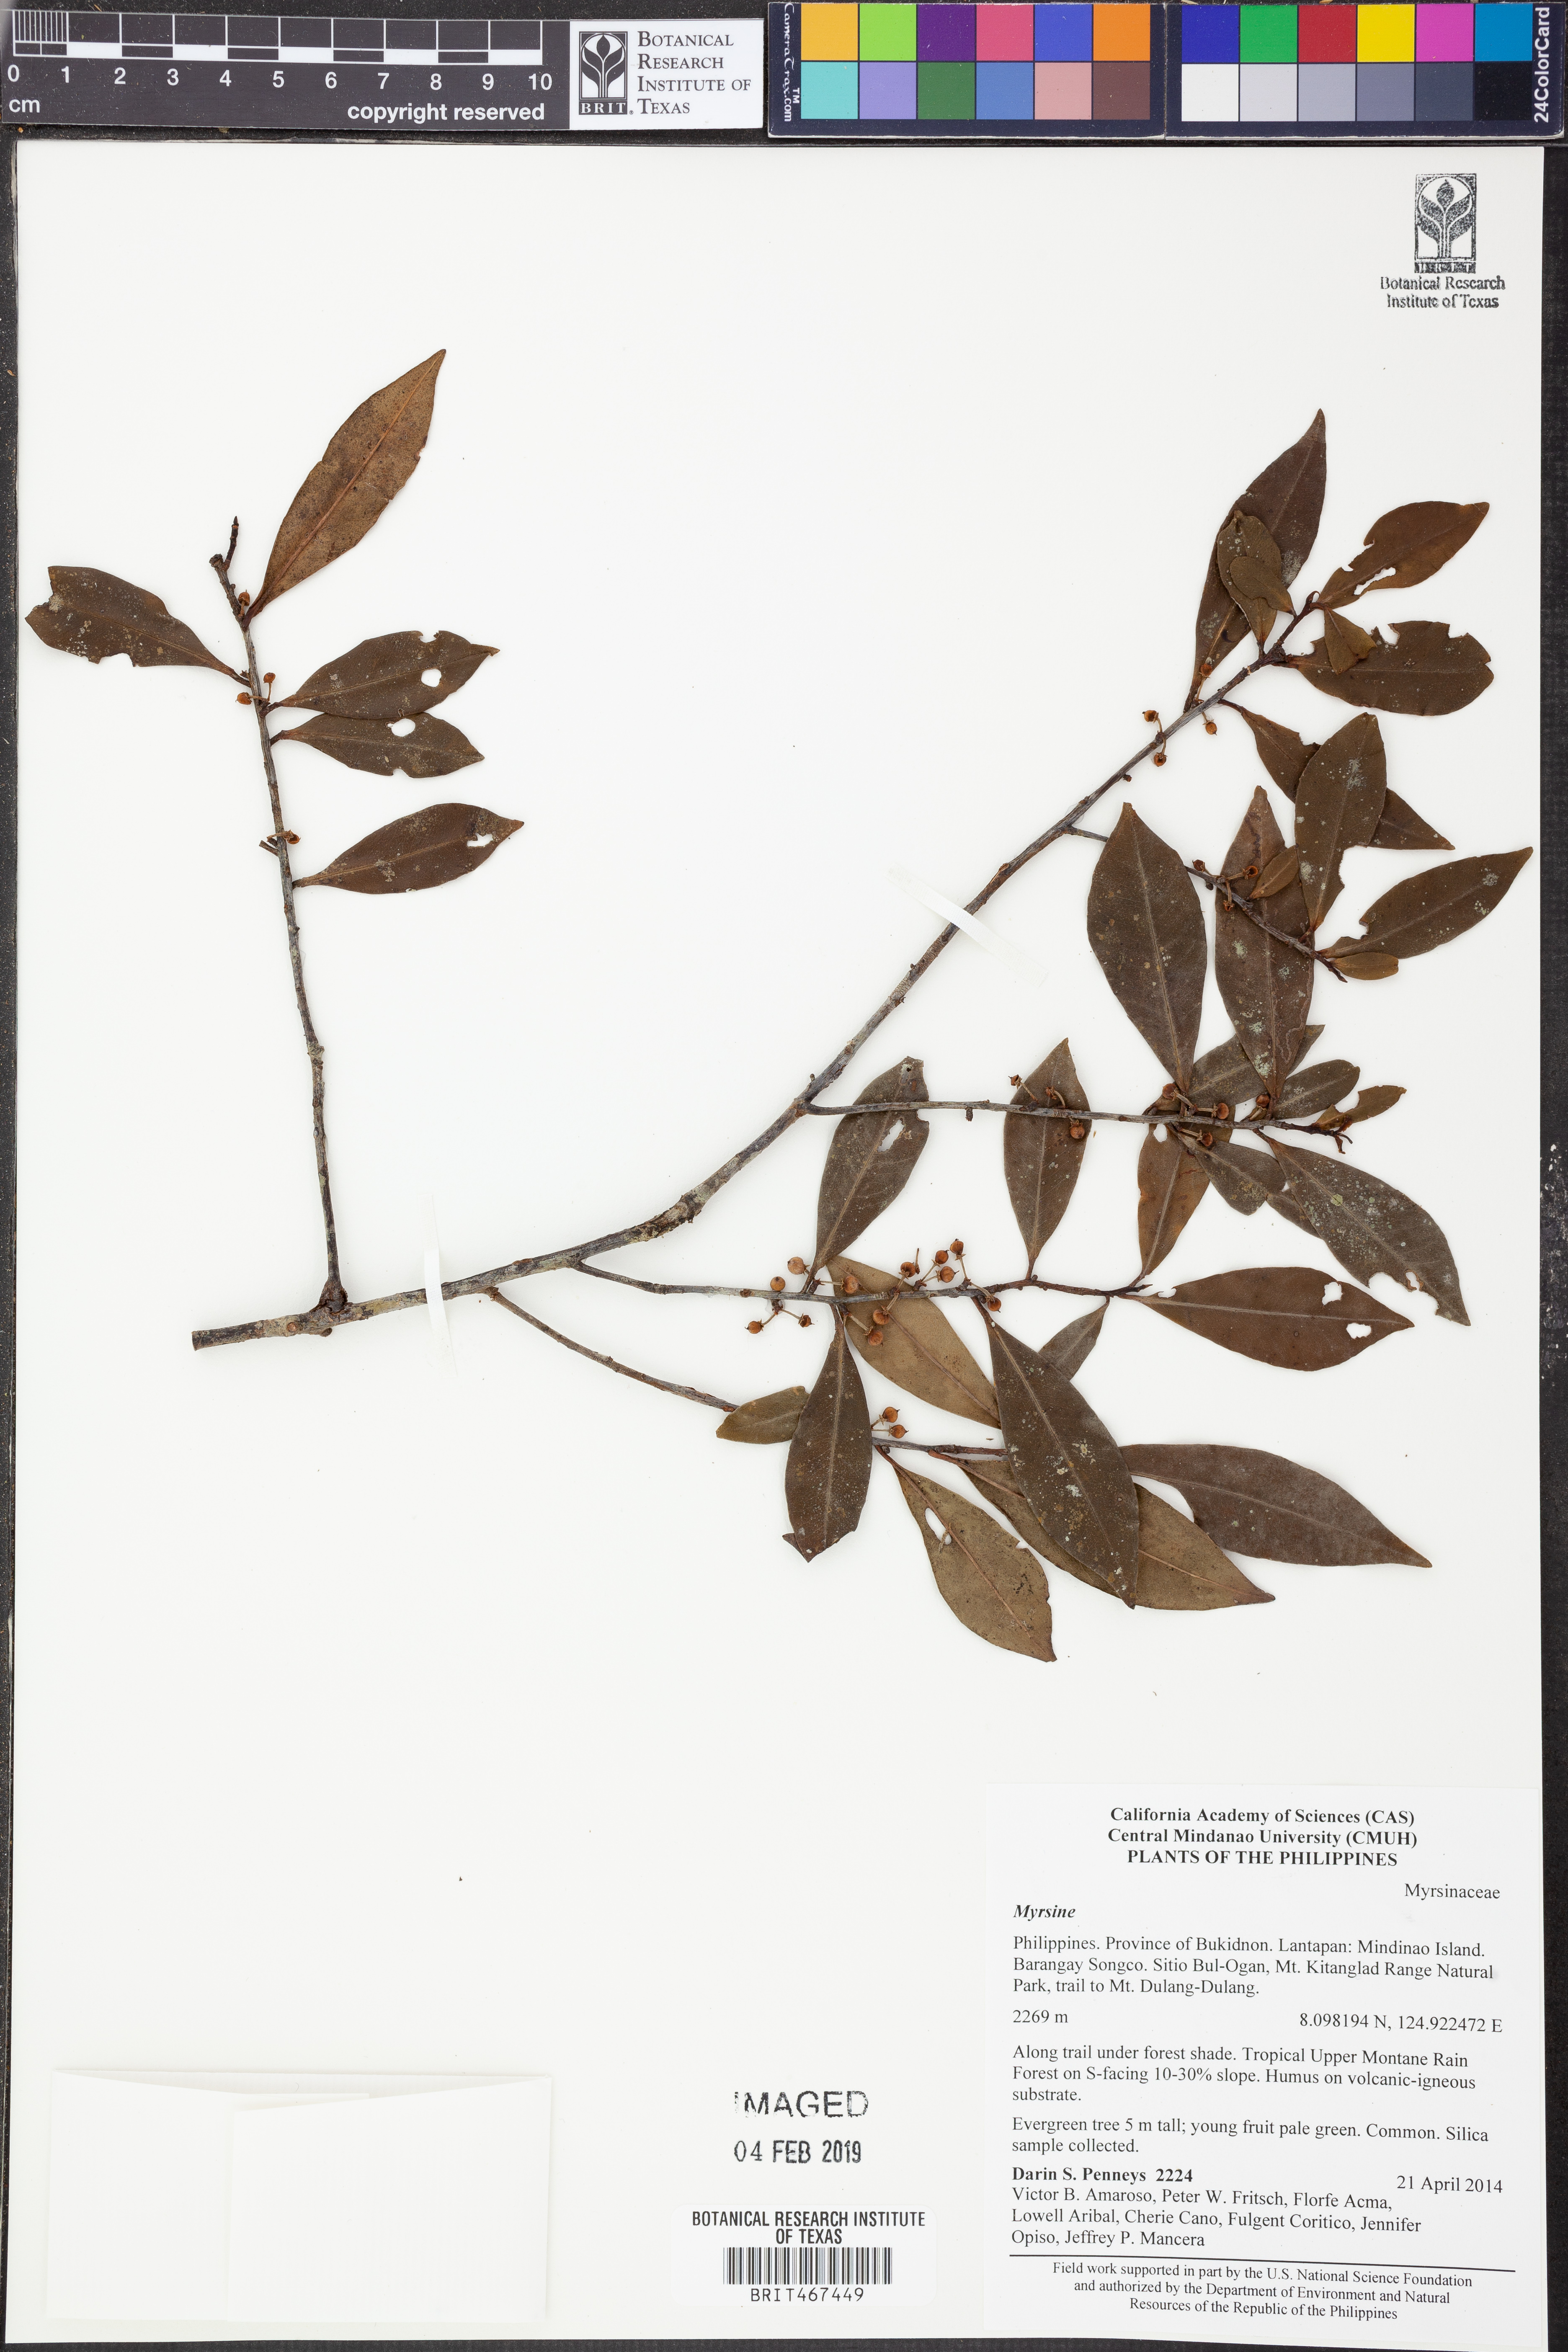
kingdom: Plantae
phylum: Tracheophyta
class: Magnoliopsida
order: Ericales
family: Primulaceae
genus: Myrsine
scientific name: Myrsine
